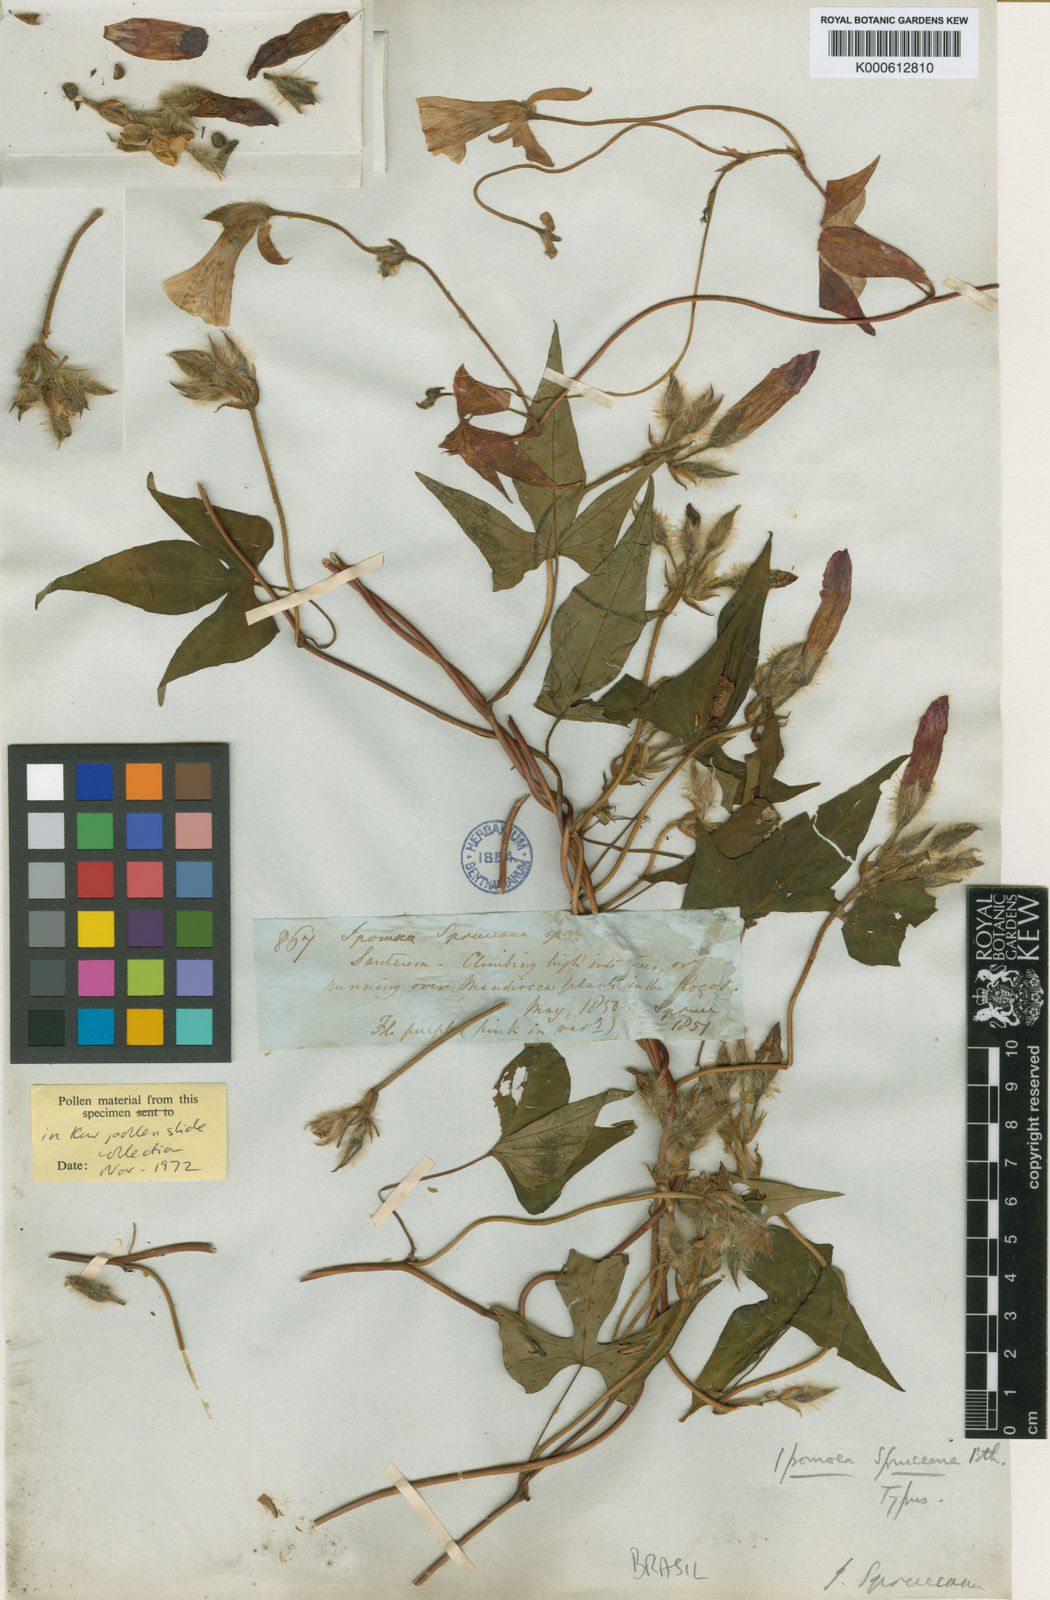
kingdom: Plantae
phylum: Tracheophyta
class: Magnoliopsida
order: Solanales
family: Convolvulaceae
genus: Ipomoea
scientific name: Ipomoea spruceana
